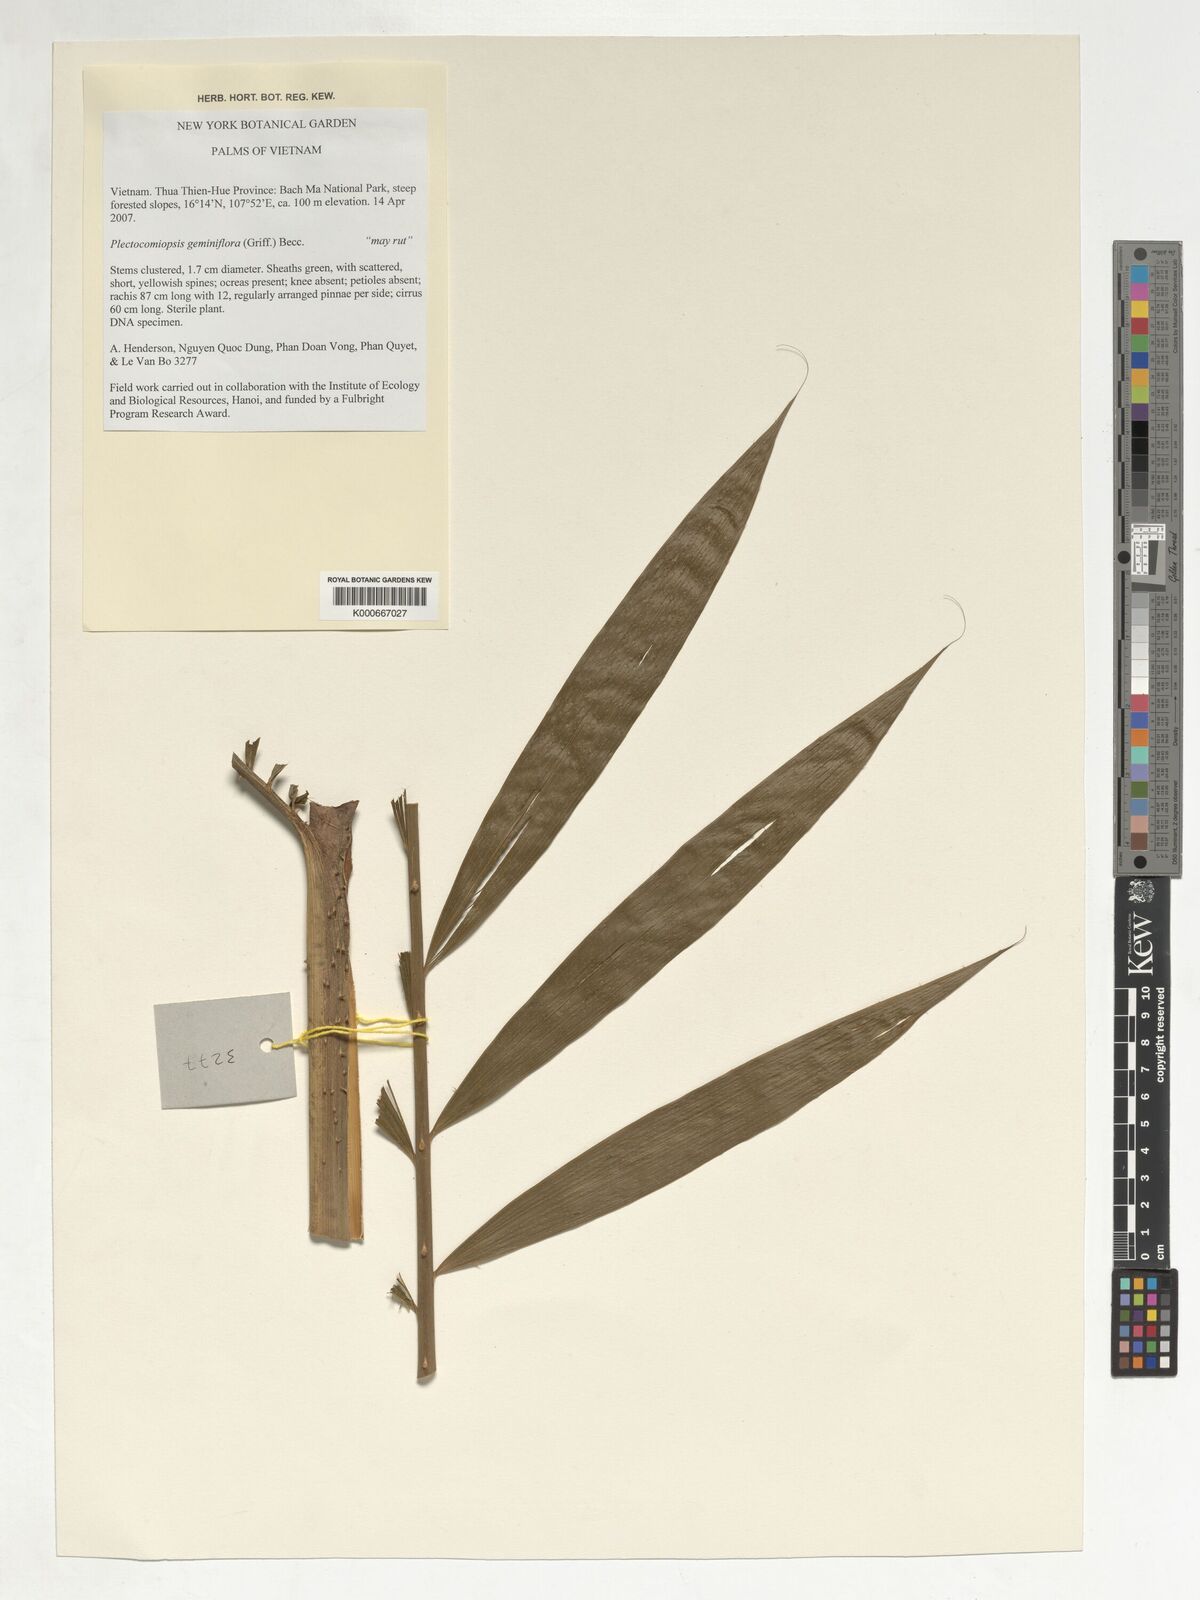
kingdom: Plantae
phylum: Tracheophyta
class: Liliopsida
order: Arecales
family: Arecaceae
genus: Plectocomiopsis
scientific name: Plectocomiopsis geminiflora
